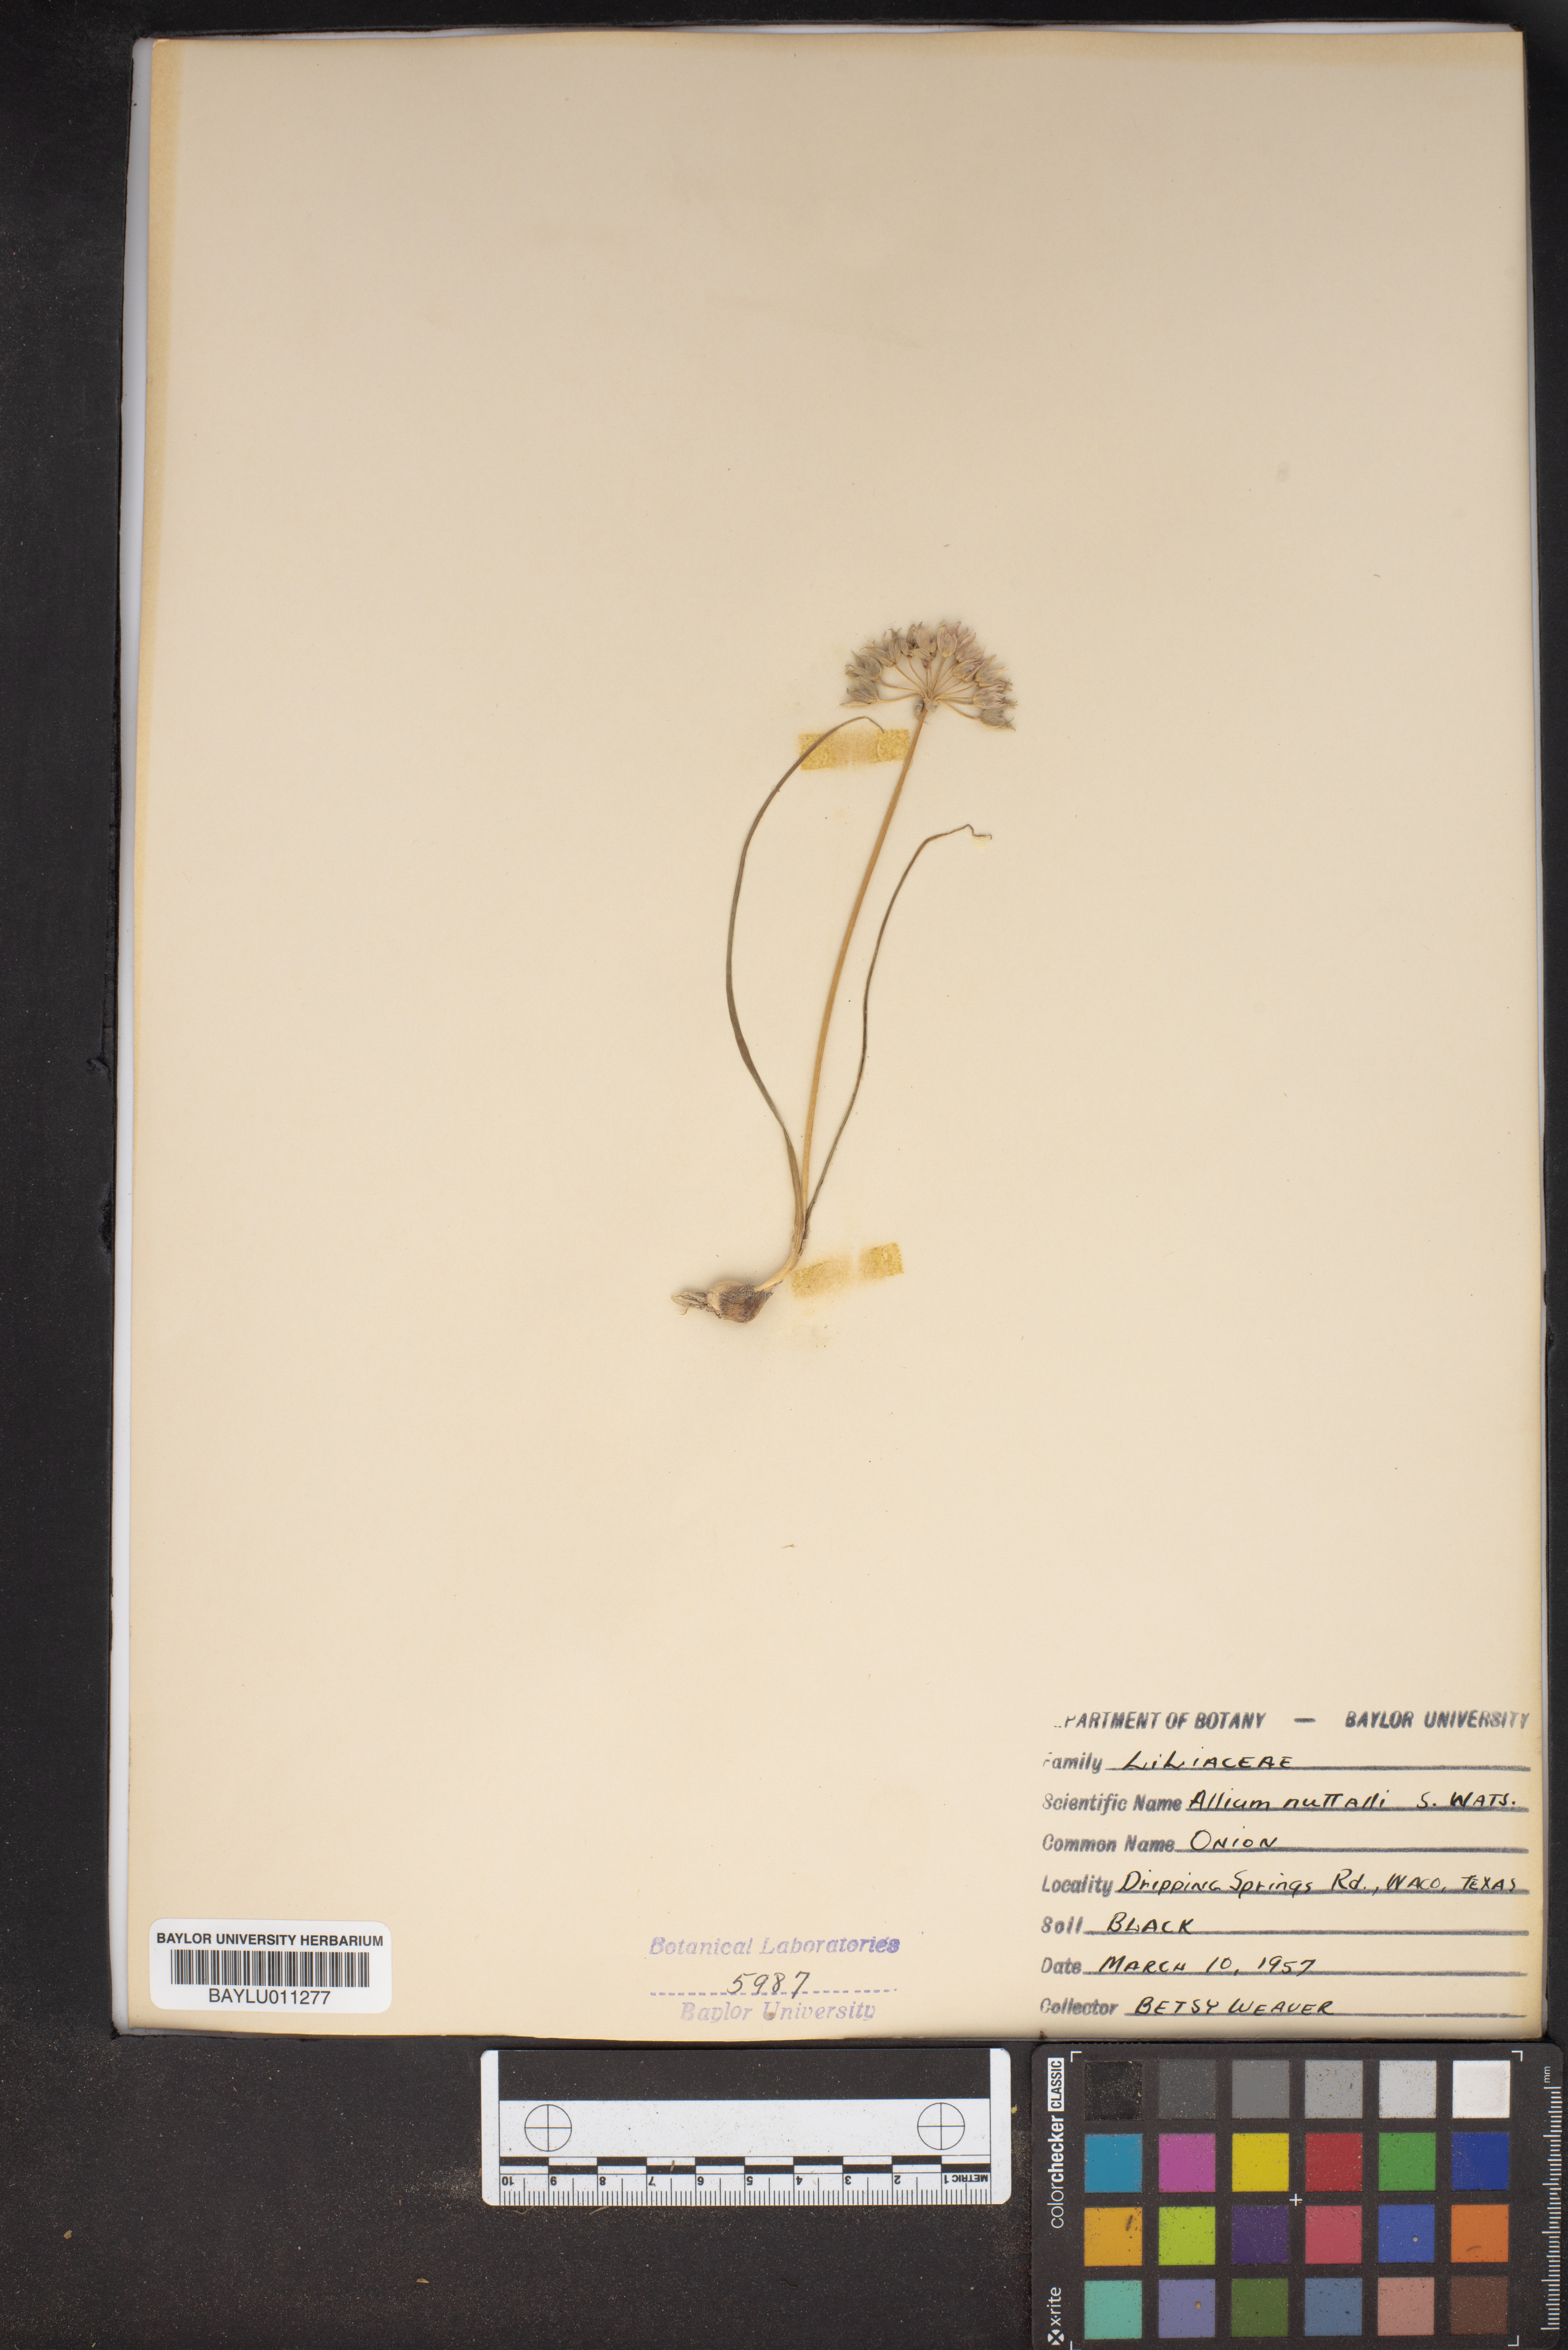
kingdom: Plantae
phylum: Tracheophyta
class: Liliopsida
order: Asparagales
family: Amaryllidaceae
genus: Allium
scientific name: Allium drummondii
